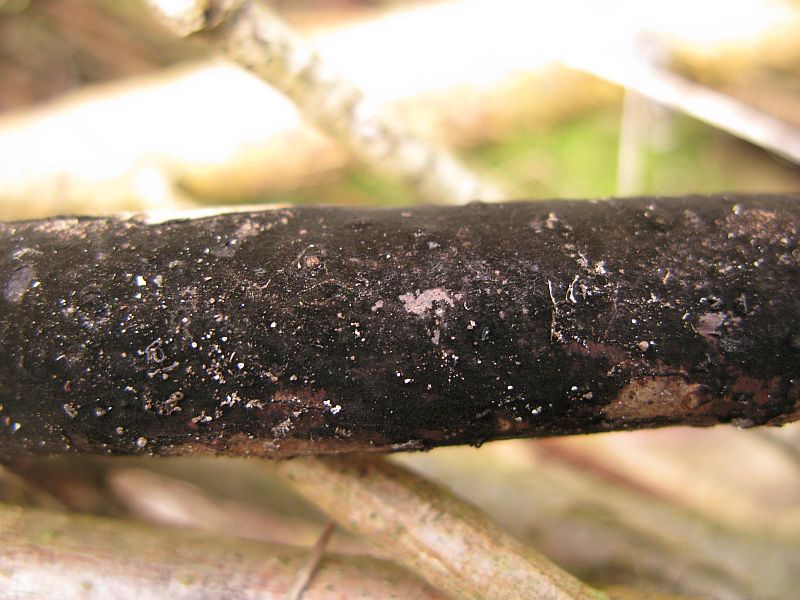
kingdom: Fungi
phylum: Ascomycota
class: Dothideomycetes
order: Mytilinidiales
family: Mytilinidiaceae
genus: Taeniolella
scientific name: Taeniolella
